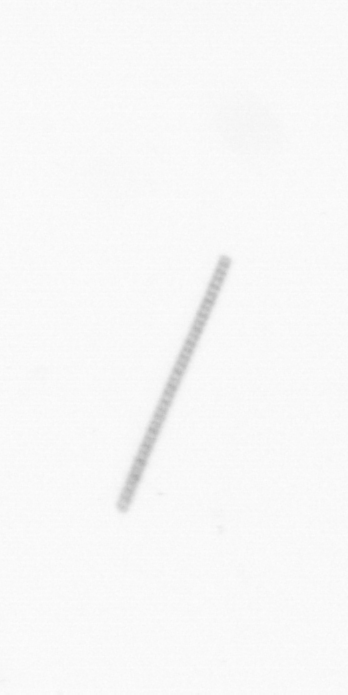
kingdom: Chromista
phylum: Ochrophyta
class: Bacillariophyceae
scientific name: Bacillariophyceae
